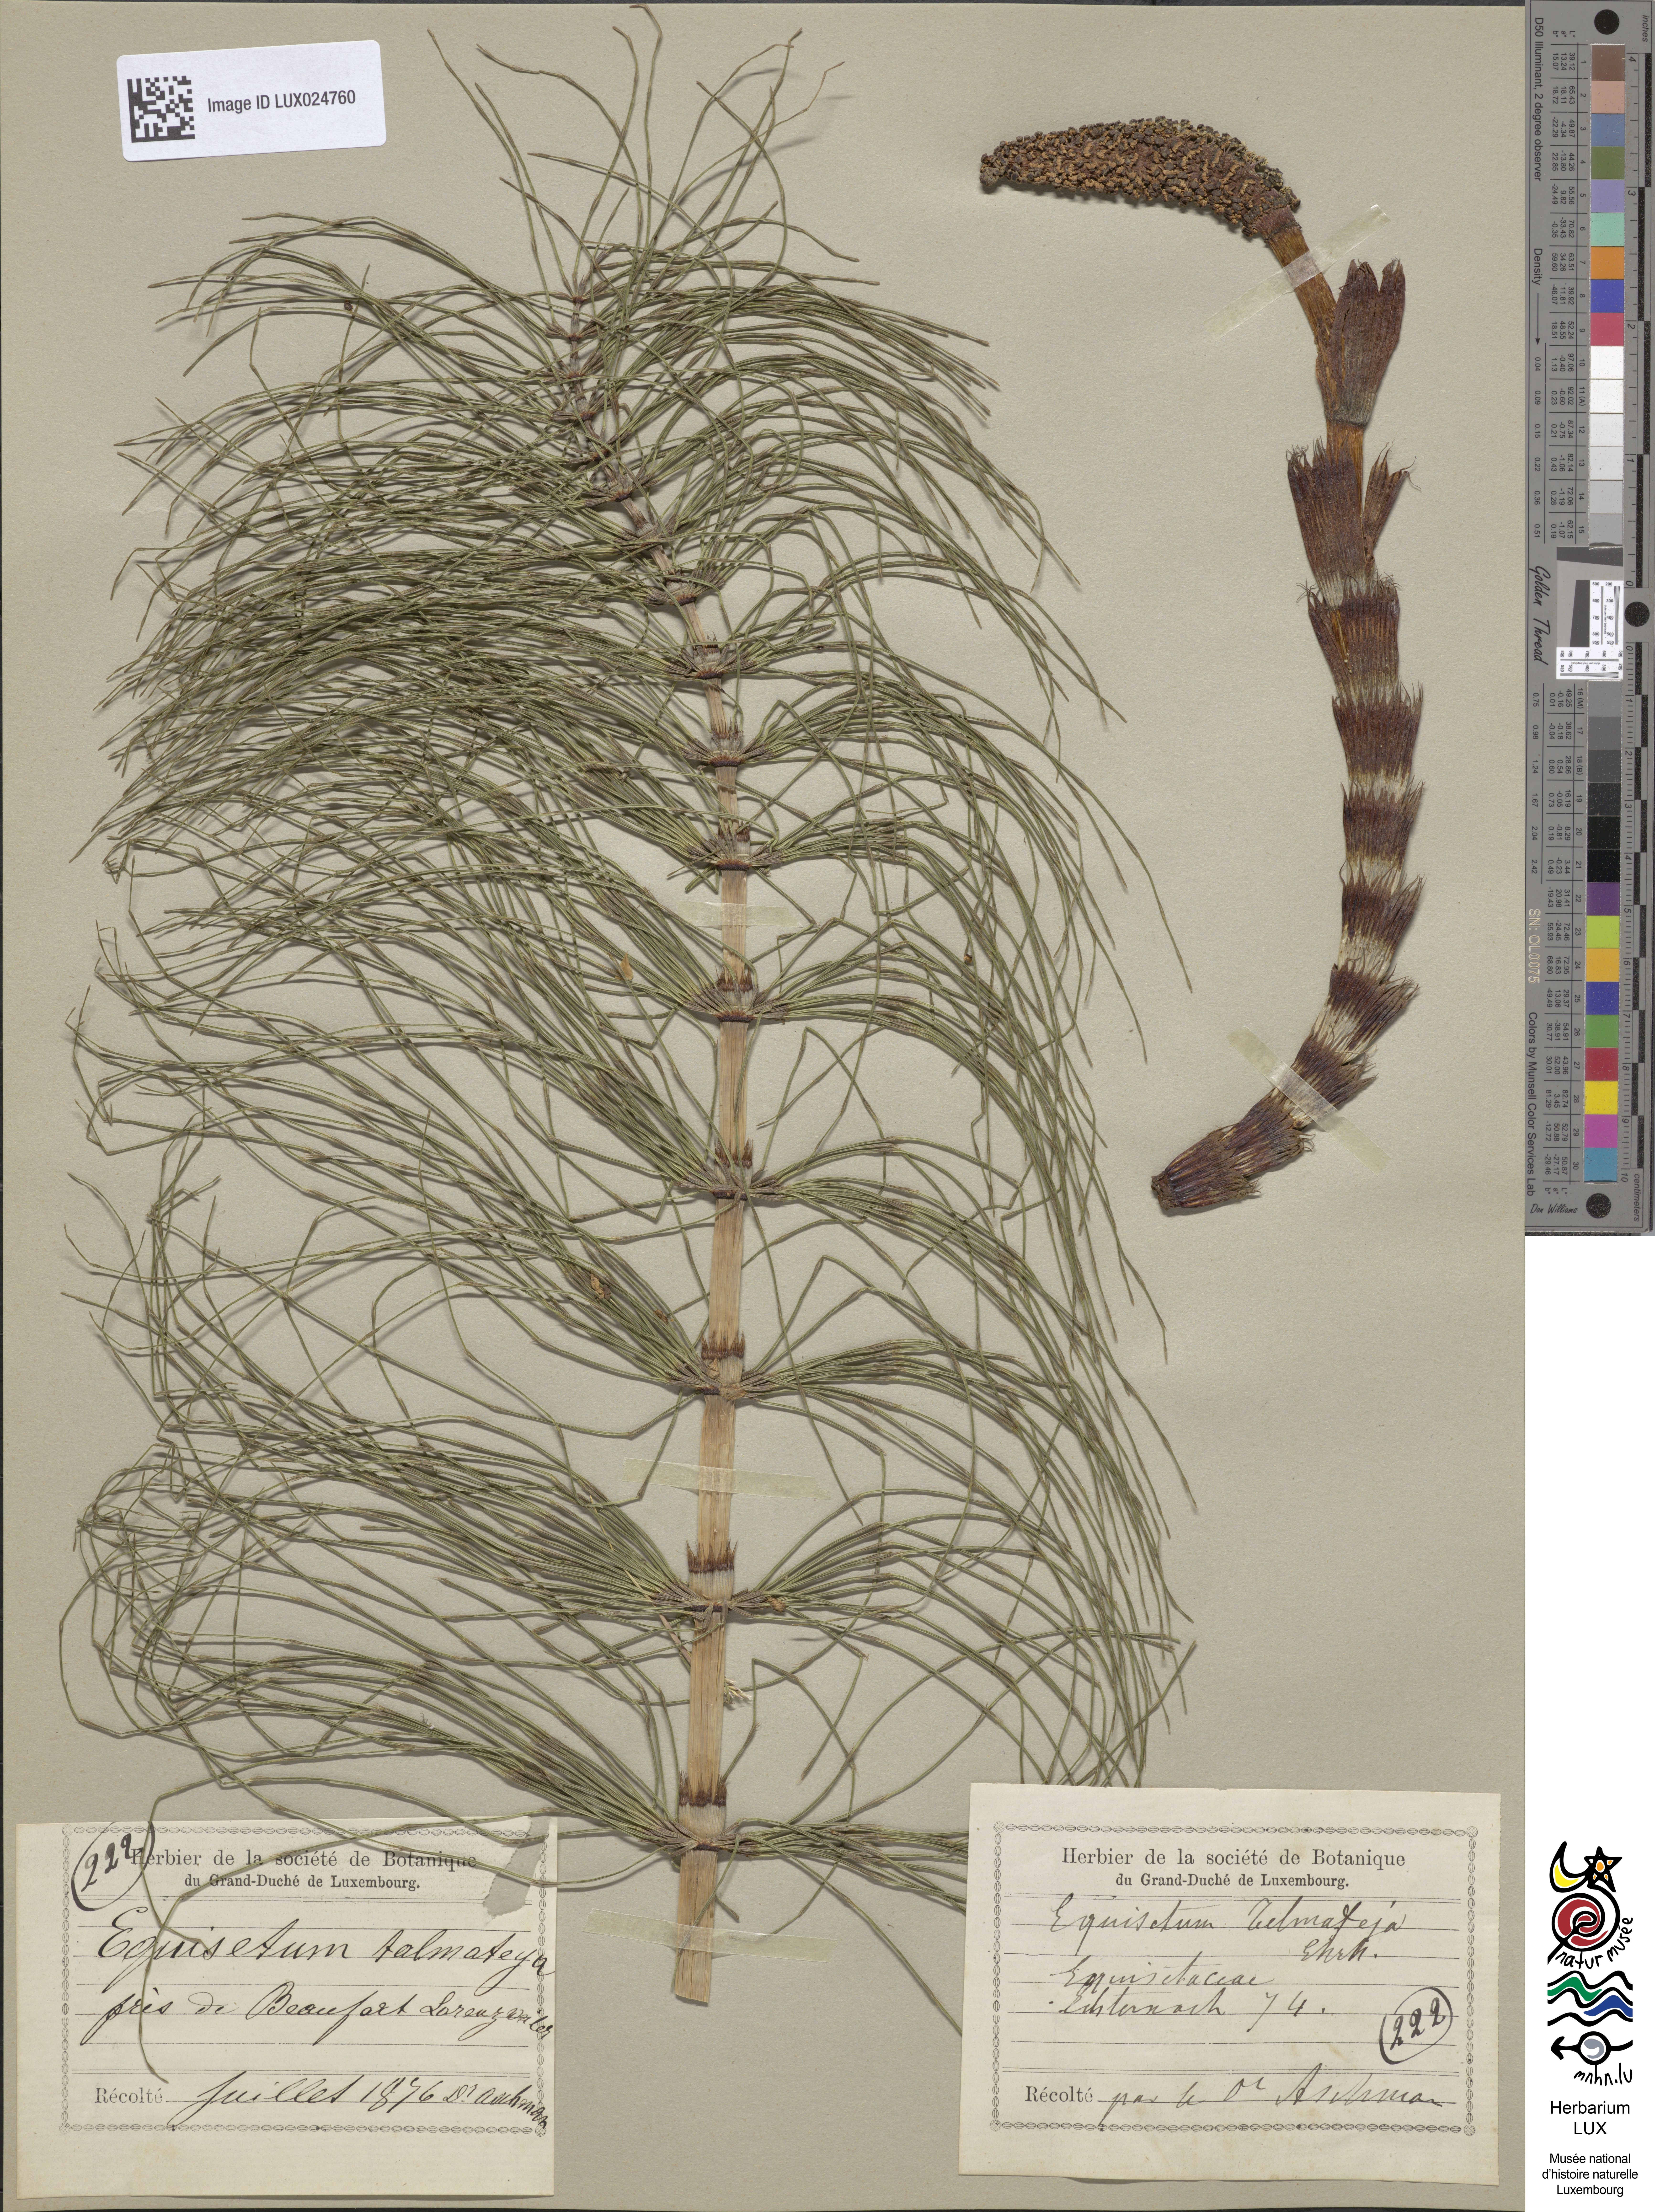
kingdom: Plantae
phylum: Tracheophyta
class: Polypodiopsida
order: Equisetales
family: Equisetaceae
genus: Equisetum
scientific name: Equisetum telmateia
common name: Great horsetail
